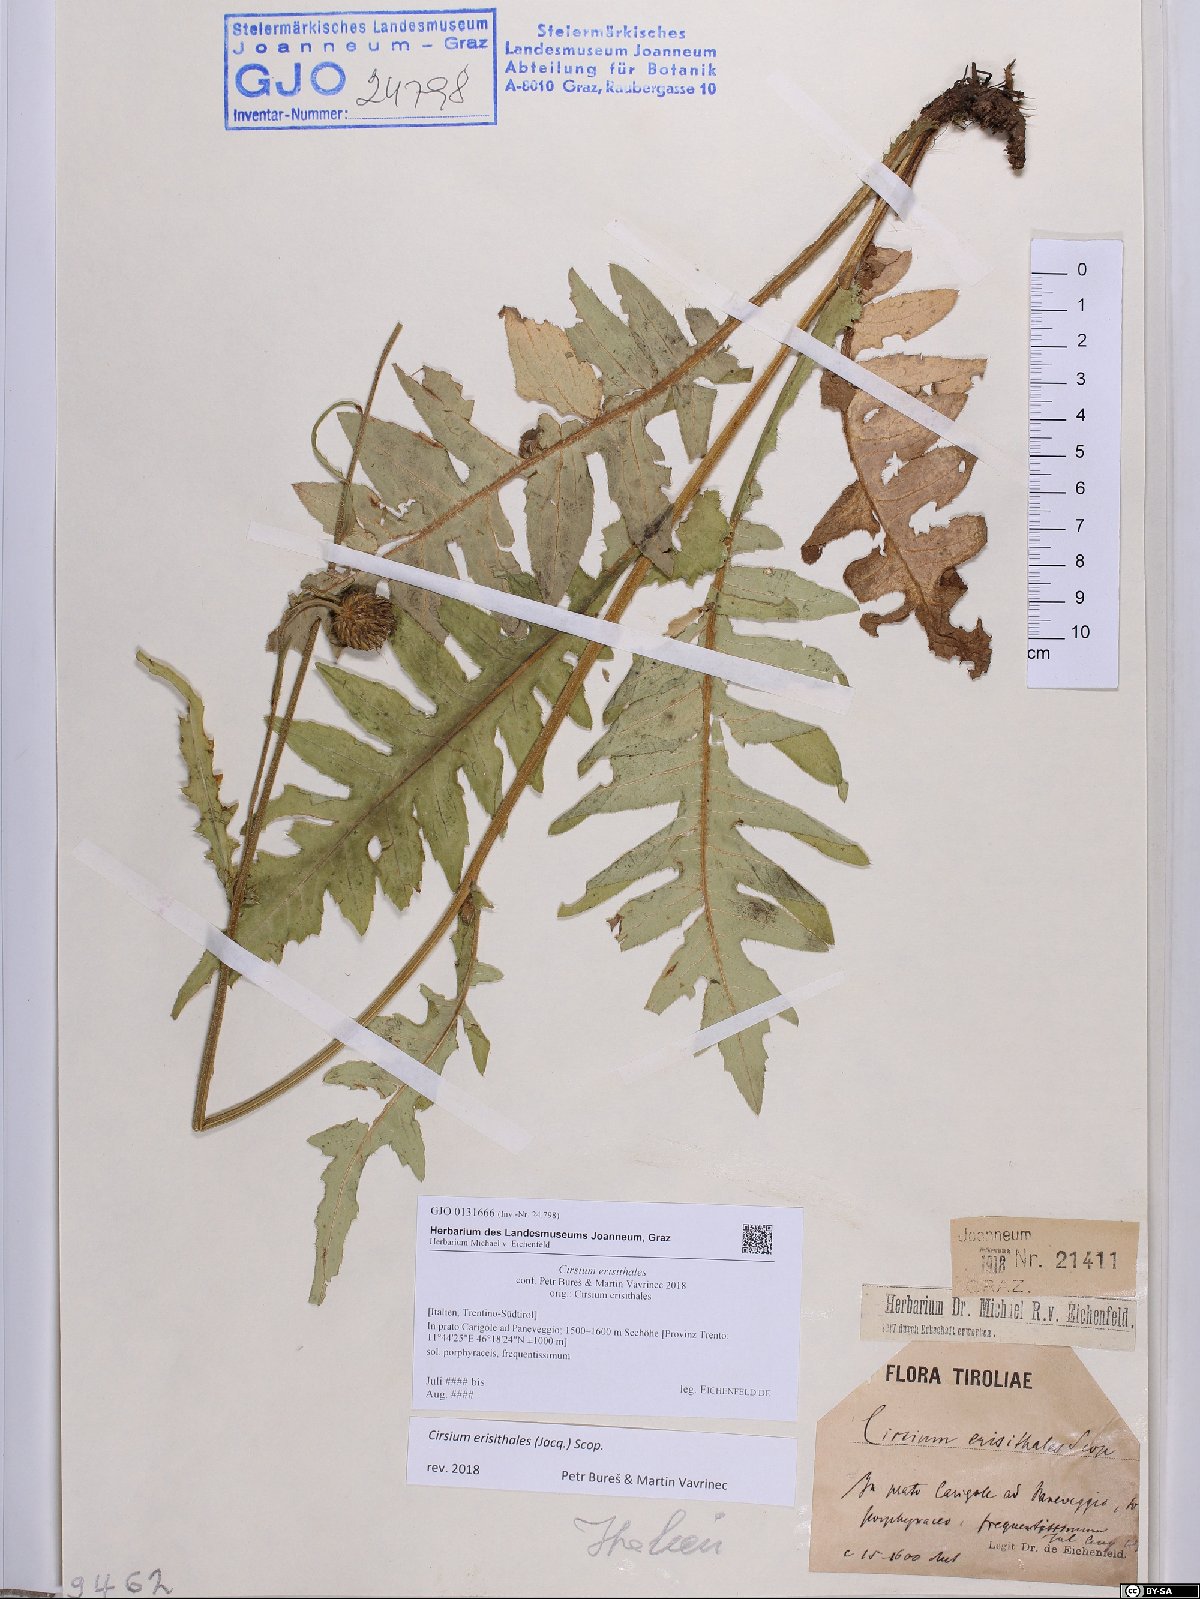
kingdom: Plantae
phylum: Tracheophyta
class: Magnoliopsida
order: Asterales
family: Asteraceae
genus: Cirsium
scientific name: Cirsium erisithales
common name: Yellow thistle
